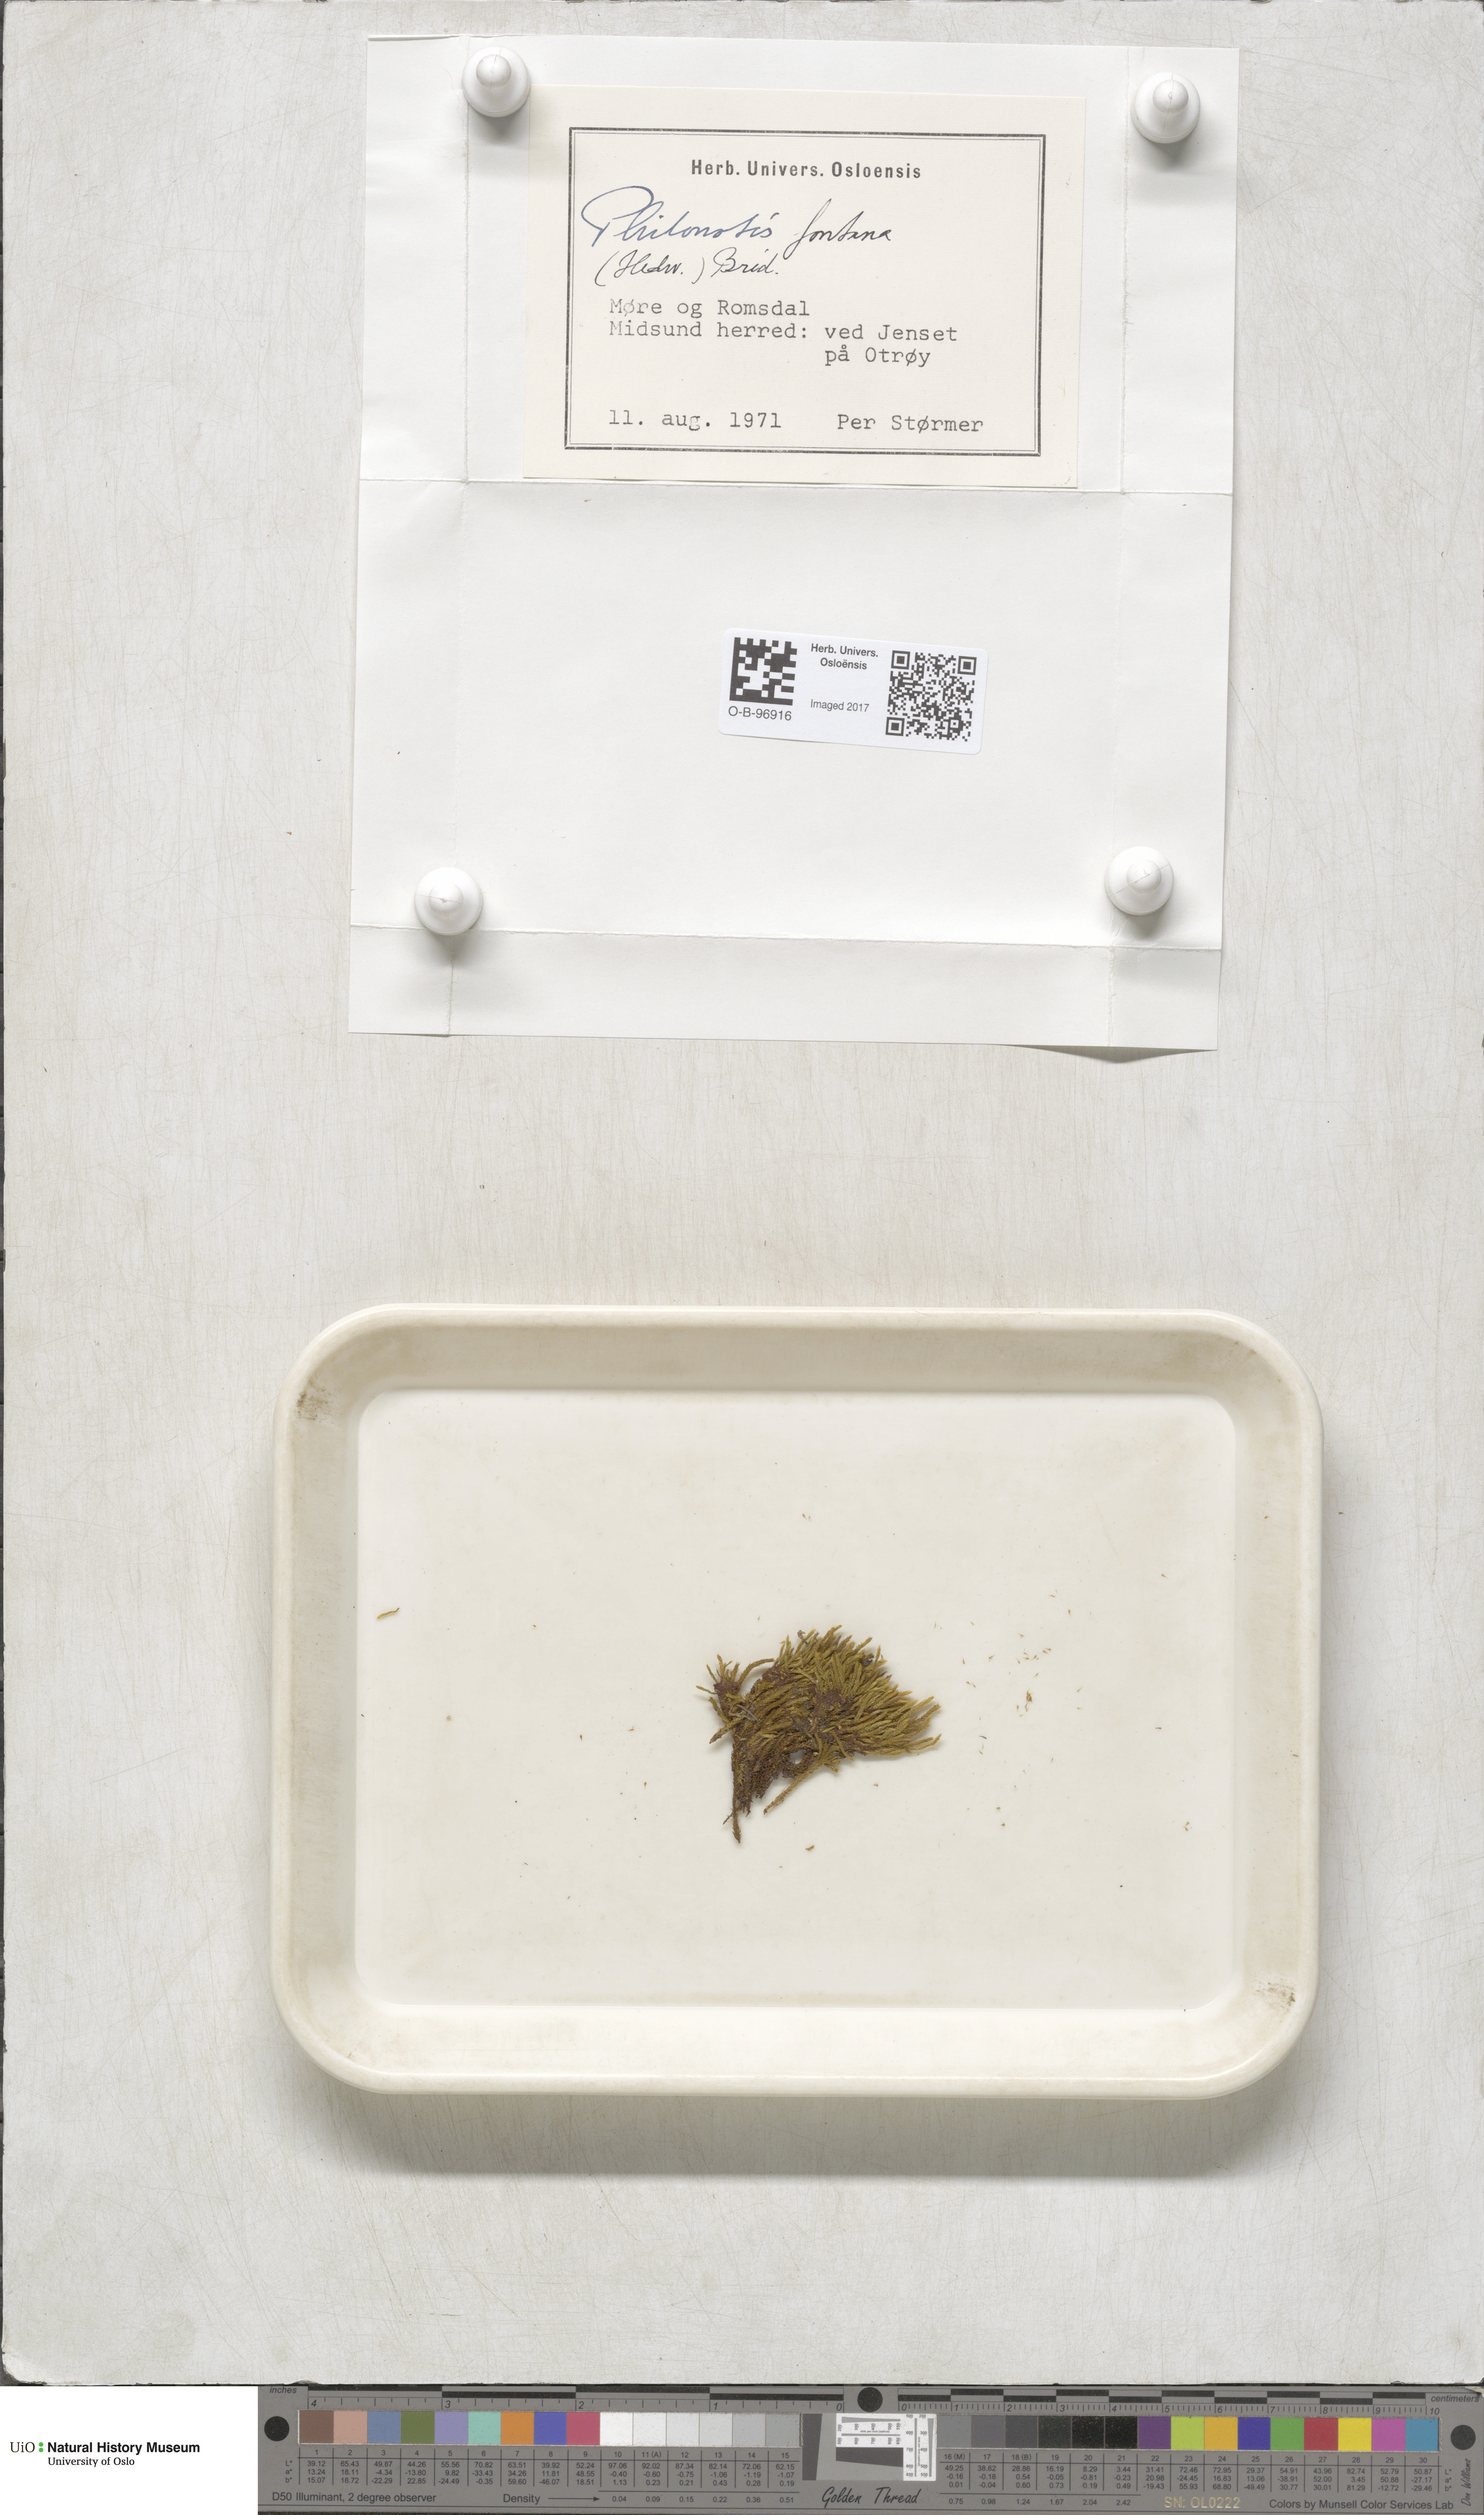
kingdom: Plantae
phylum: Bryophyta
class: Bryopsida
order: Bartramiales
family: Bartramiaceae
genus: Philonotis
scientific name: Philonotis fontana
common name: Fountain apple-moss
